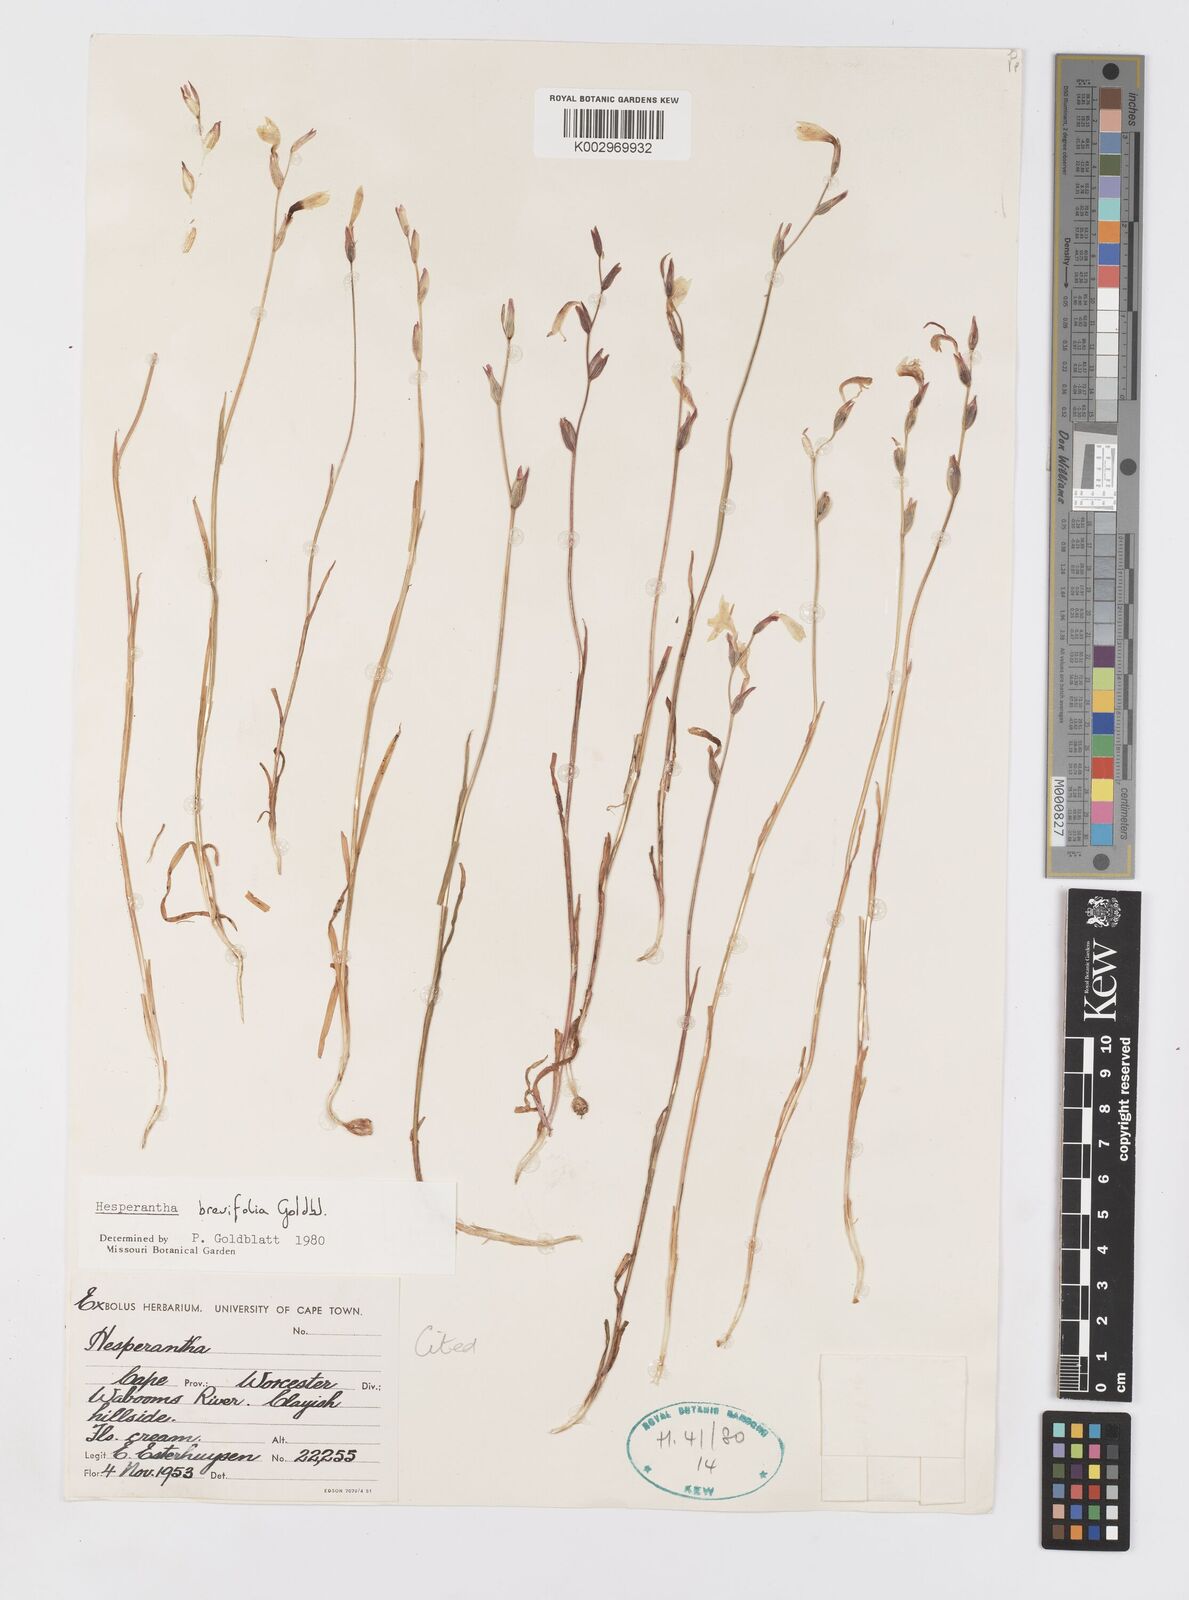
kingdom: Plantae
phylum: Tracheophyta
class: Liliopsida
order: Asparagales
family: Iridaceae
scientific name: Iridaceae
